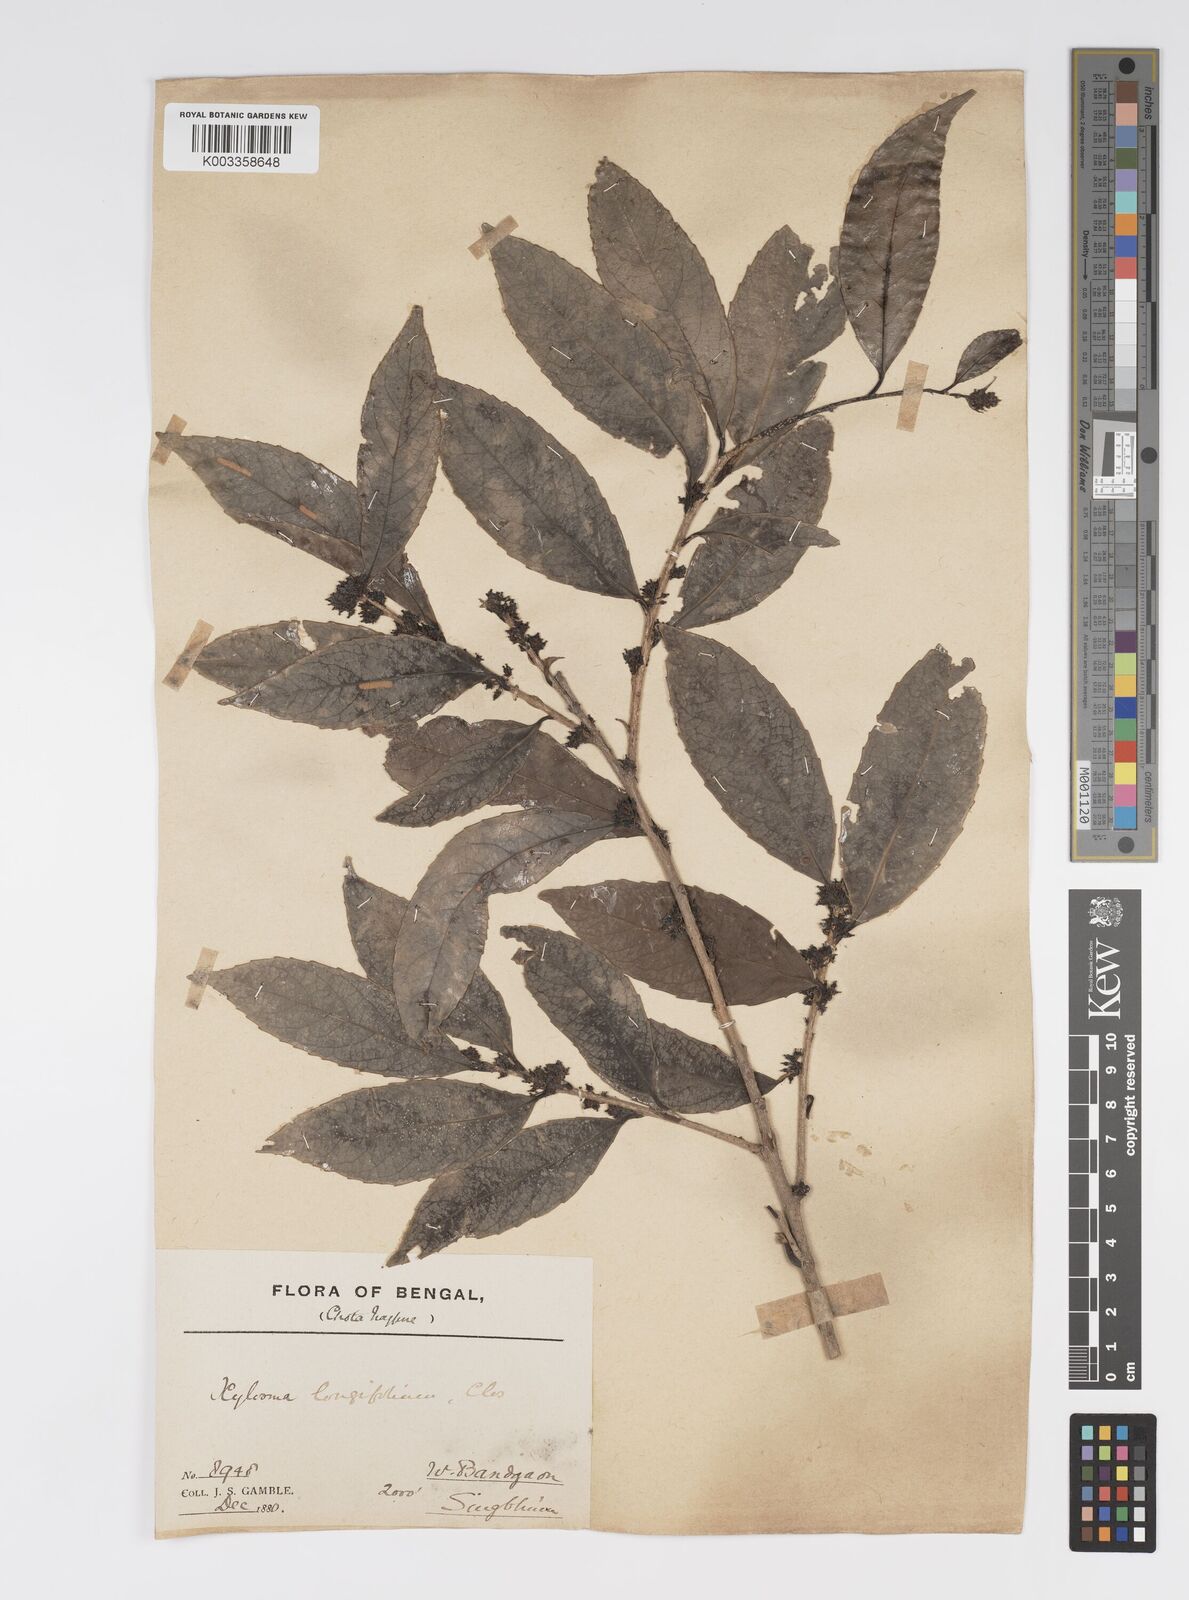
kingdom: Plantae
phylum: Tracheophyta
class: Magnoliopsida
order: Malpighiales
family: Salicaceae
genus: Xylosma
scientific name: Xylosma longifolia
